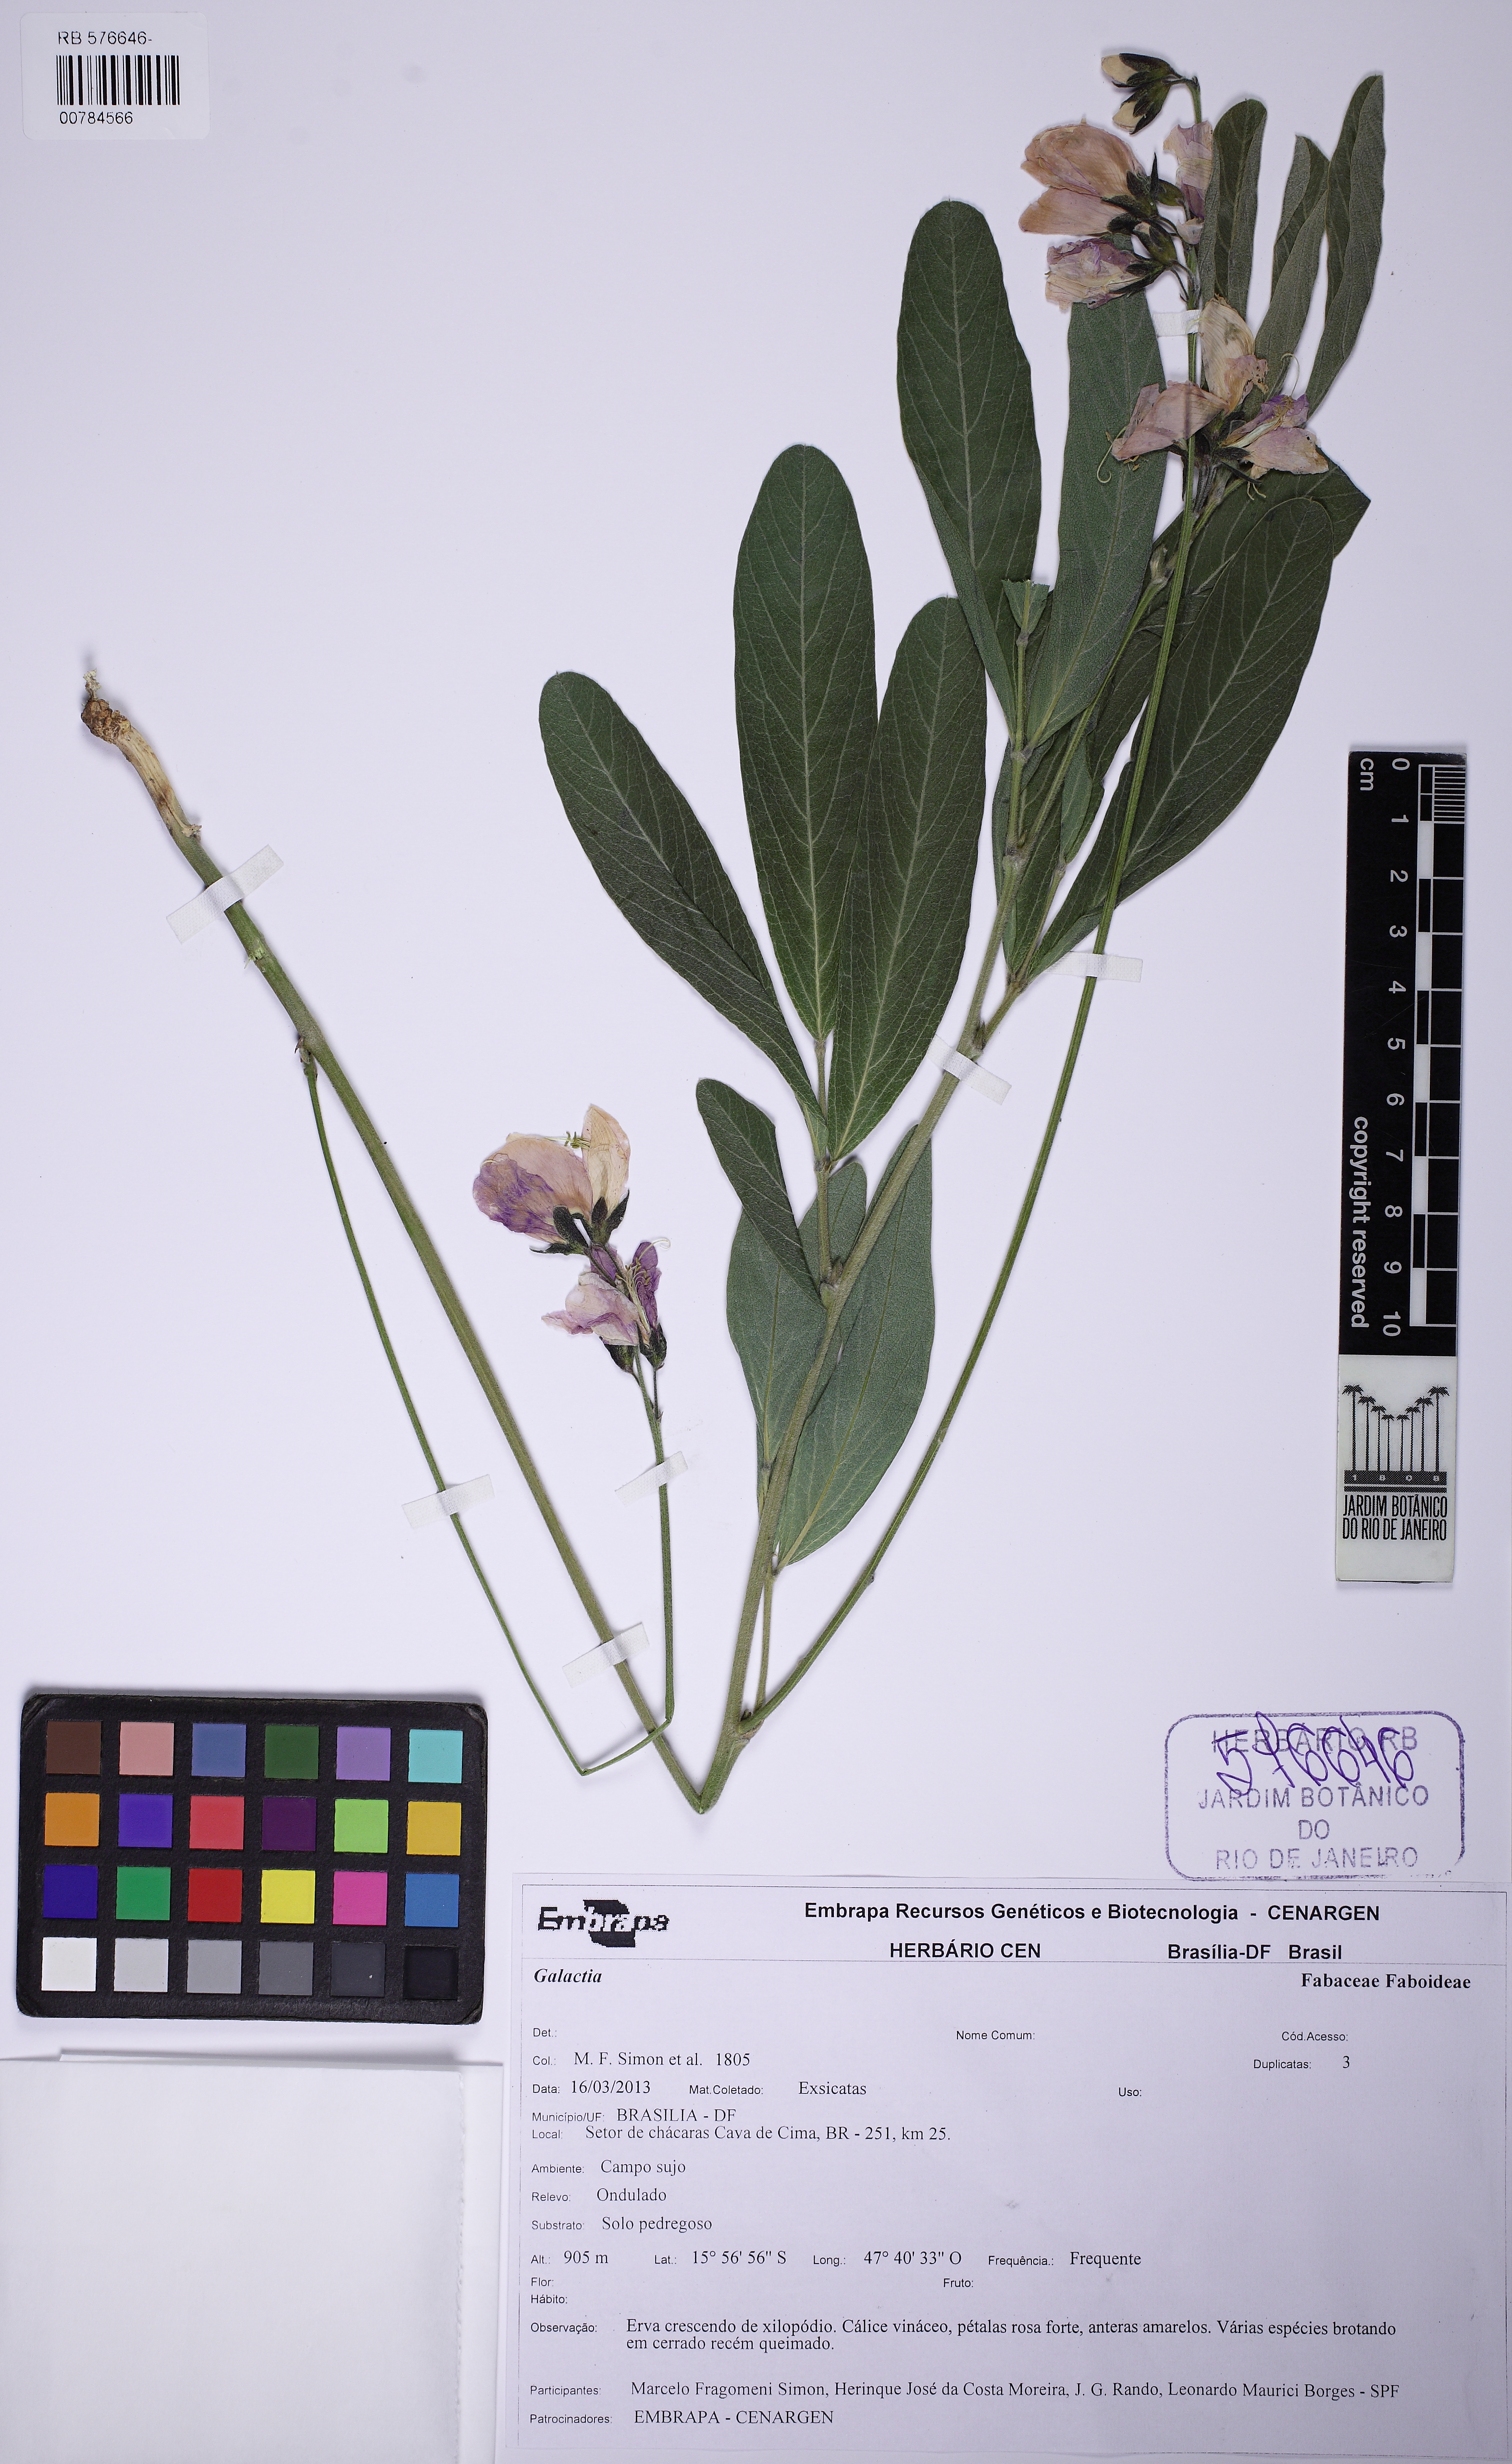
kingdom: Plantae
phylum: Tracheophyta
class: Magnoliopsida
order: Fabales
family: Fabaceae
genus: Cerradicola
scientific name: Cerradicola peduncularis
